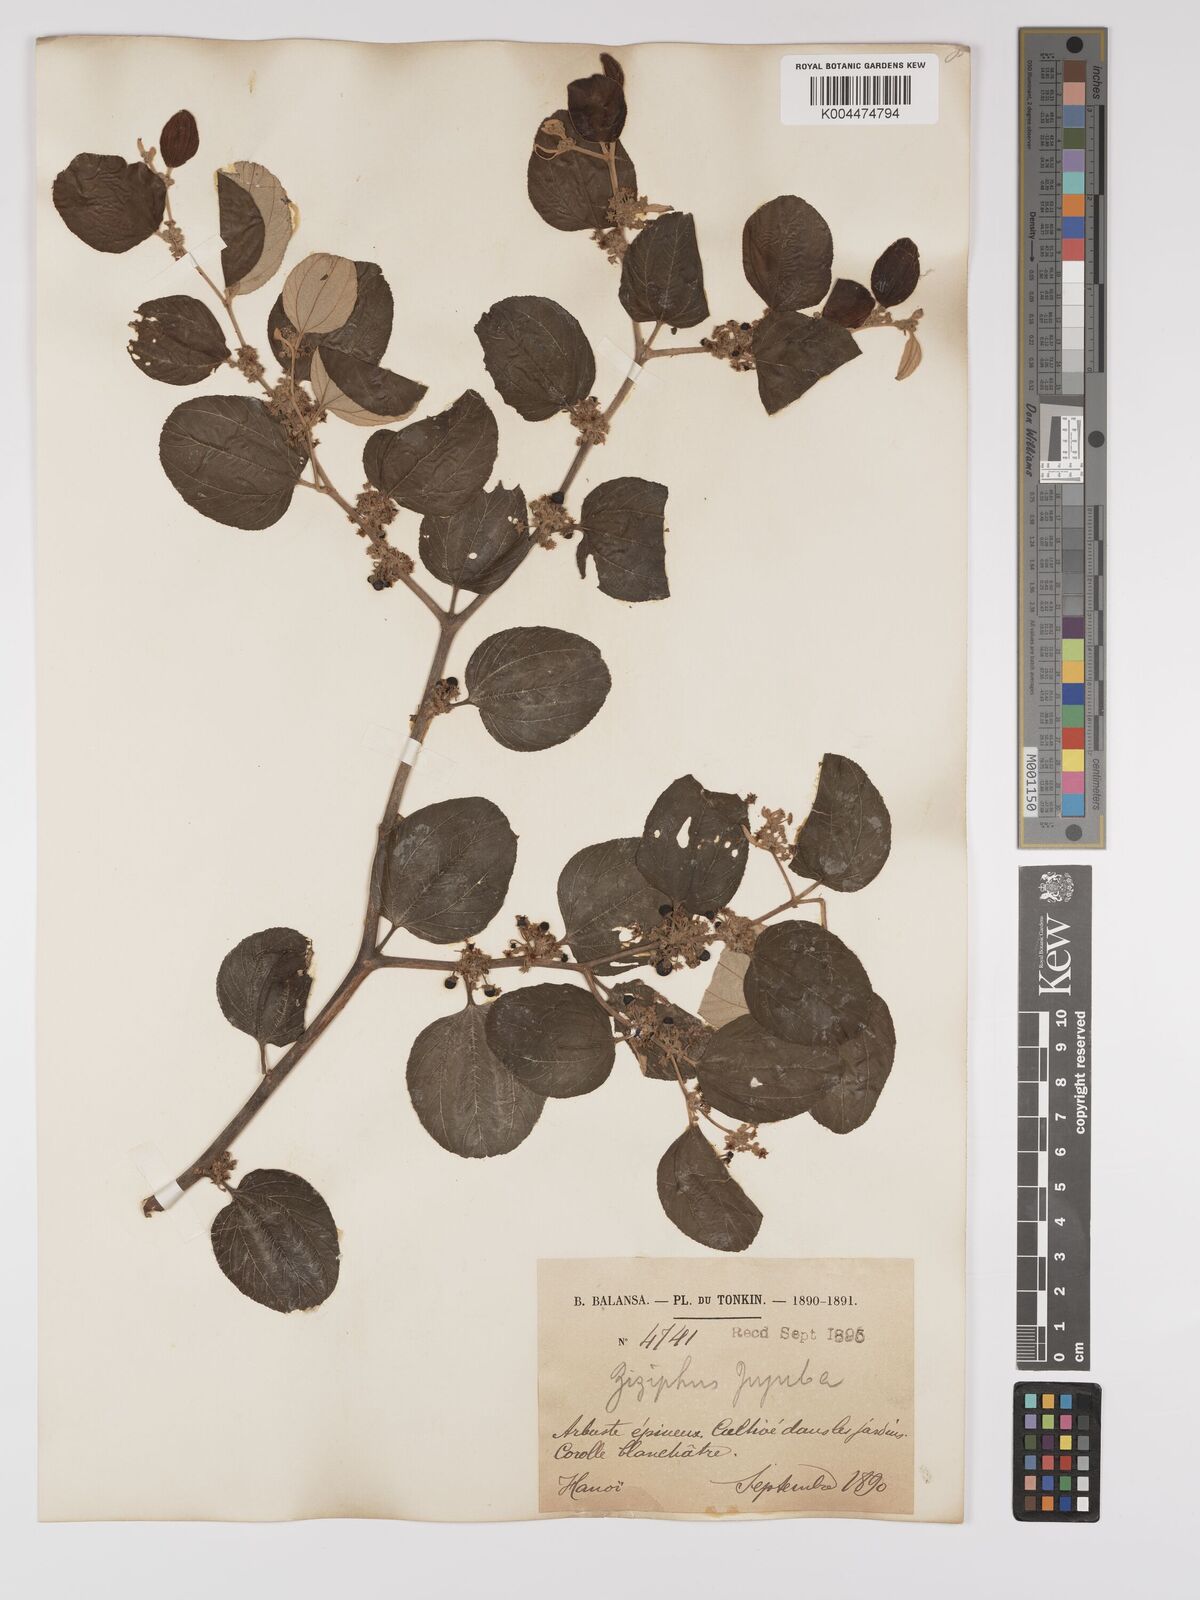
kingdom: Plantae
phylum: Tracheophyta
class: Magnoliopsida
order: Rosales
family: Rhamnaceae
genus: Ziziphus
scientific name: Ziziphus mauritiana
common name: Indian jujube
